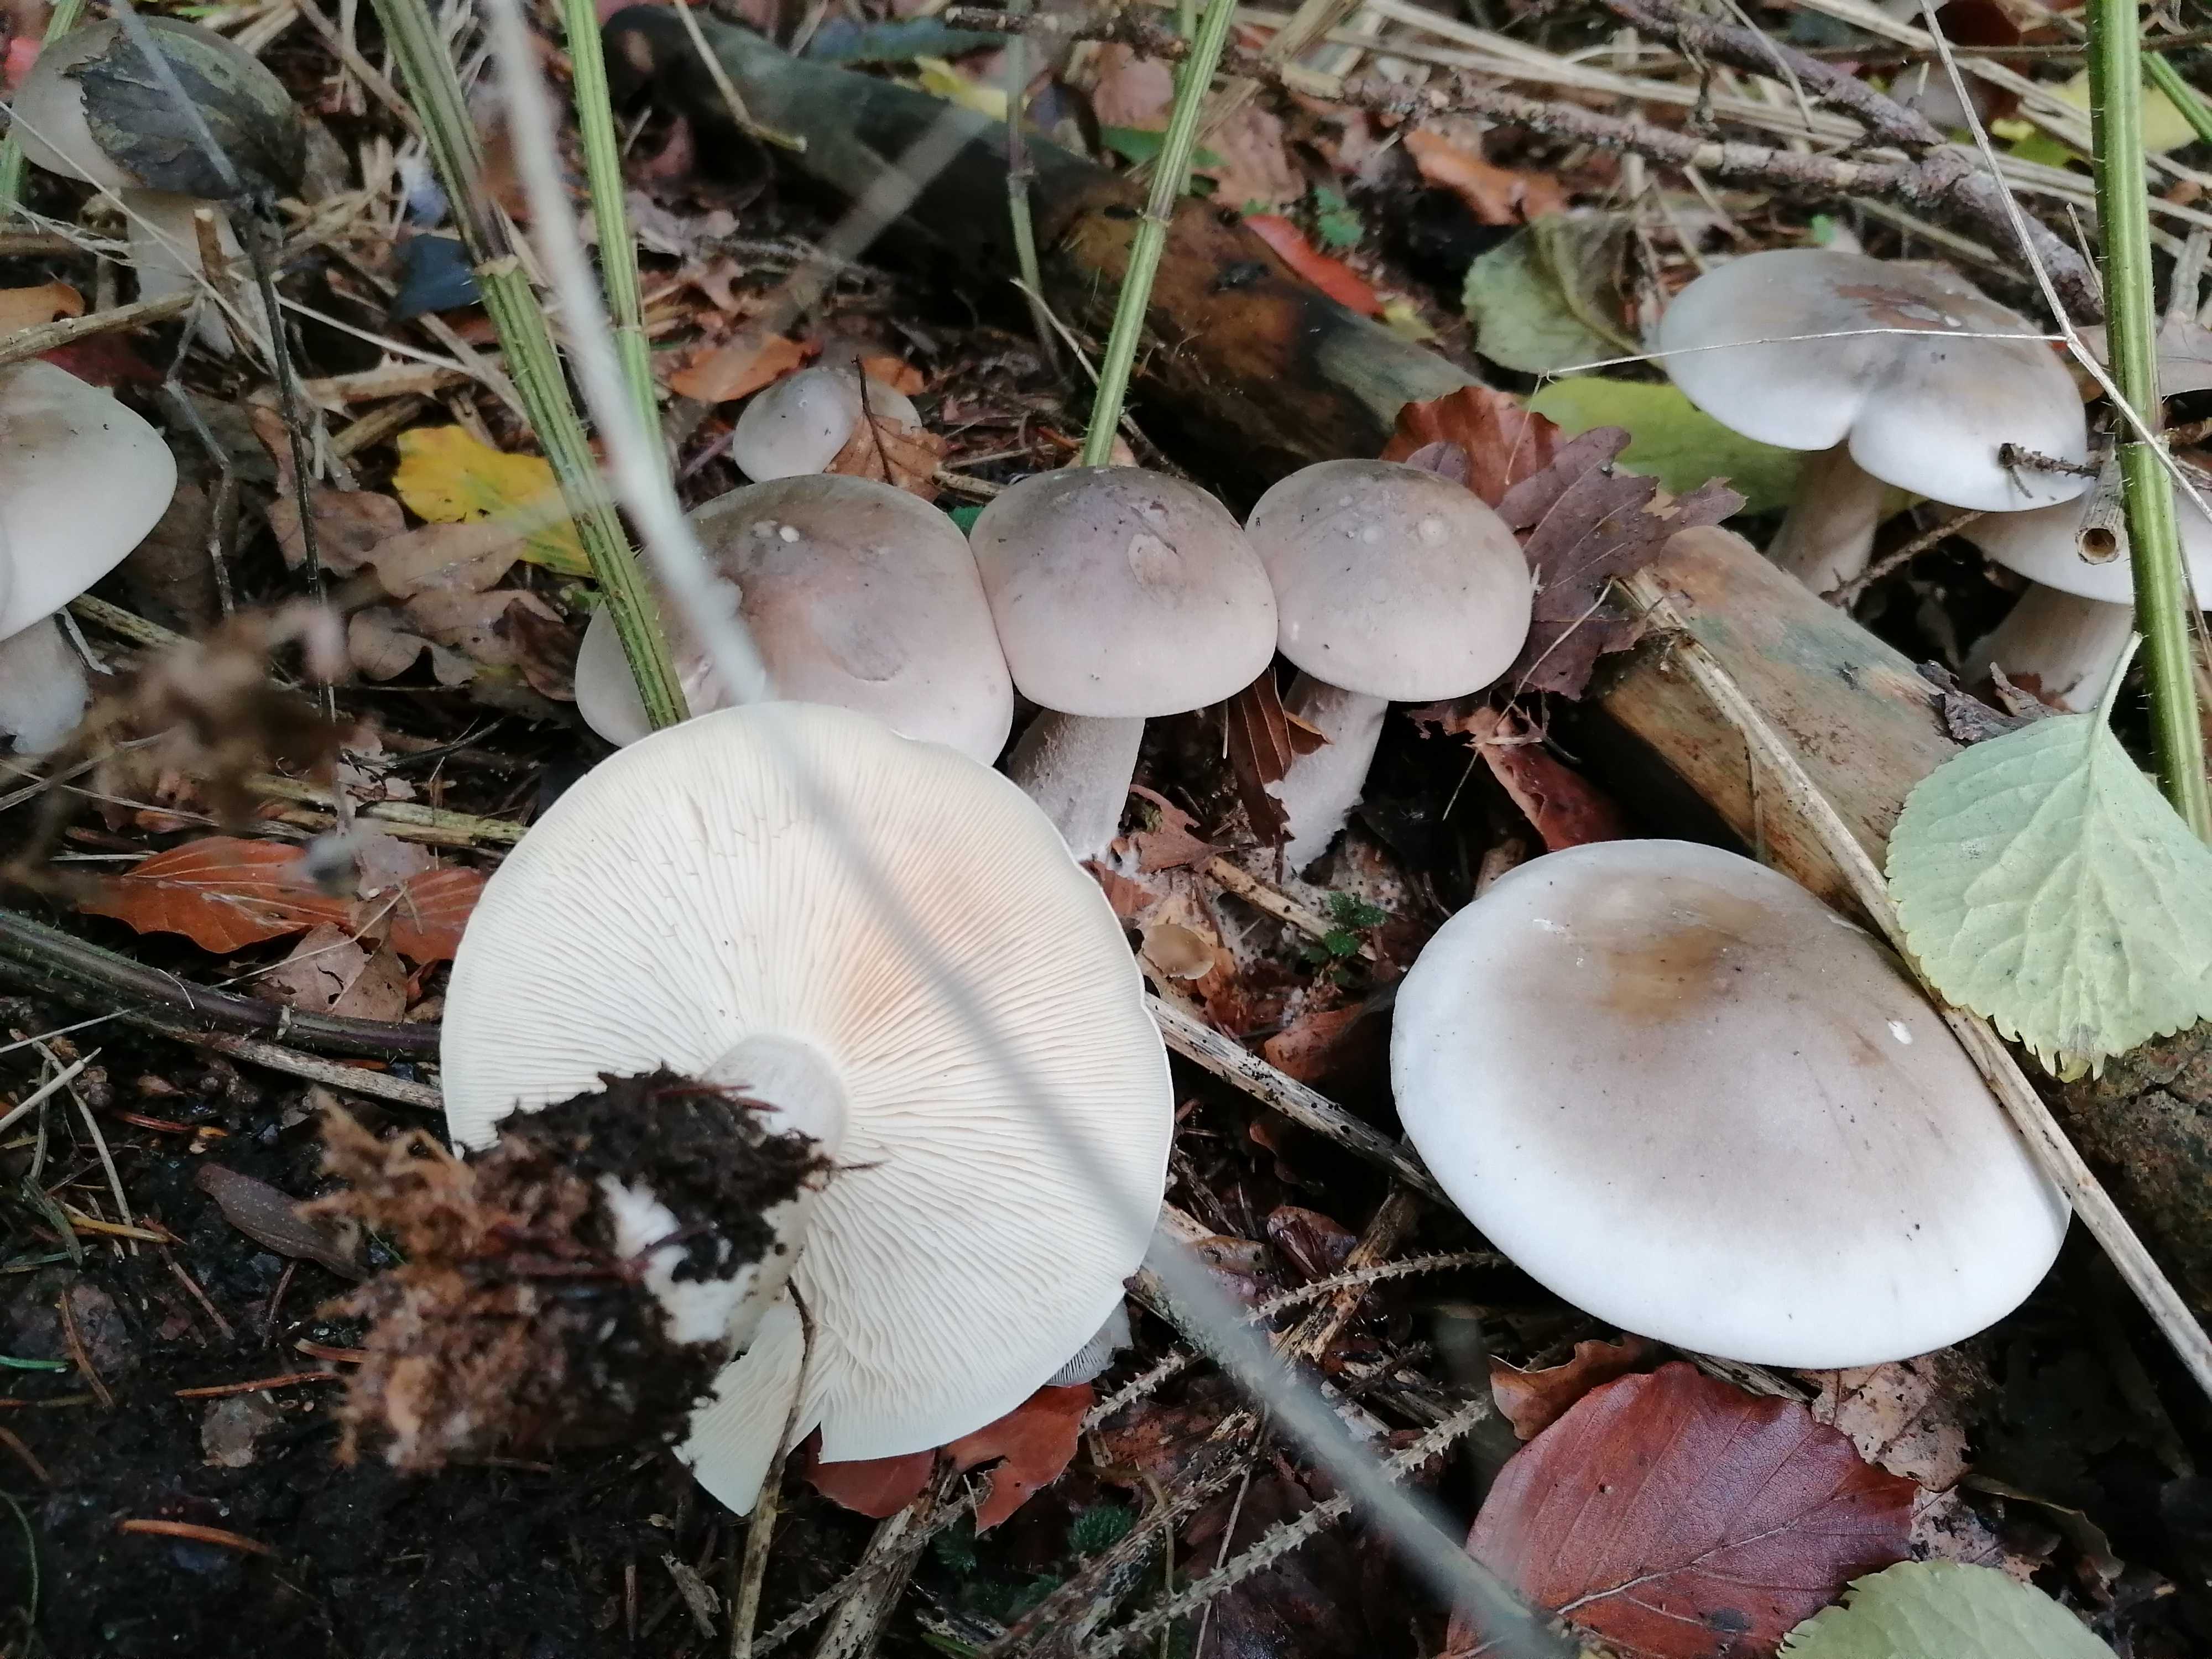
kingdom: Fungi
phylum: Basidiomycota
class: Agaricomycetes
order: Agaricales
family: Tricholomataceae
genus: Clitocybe
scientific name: Clitocybe nebularis
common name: tåge-tragthat
